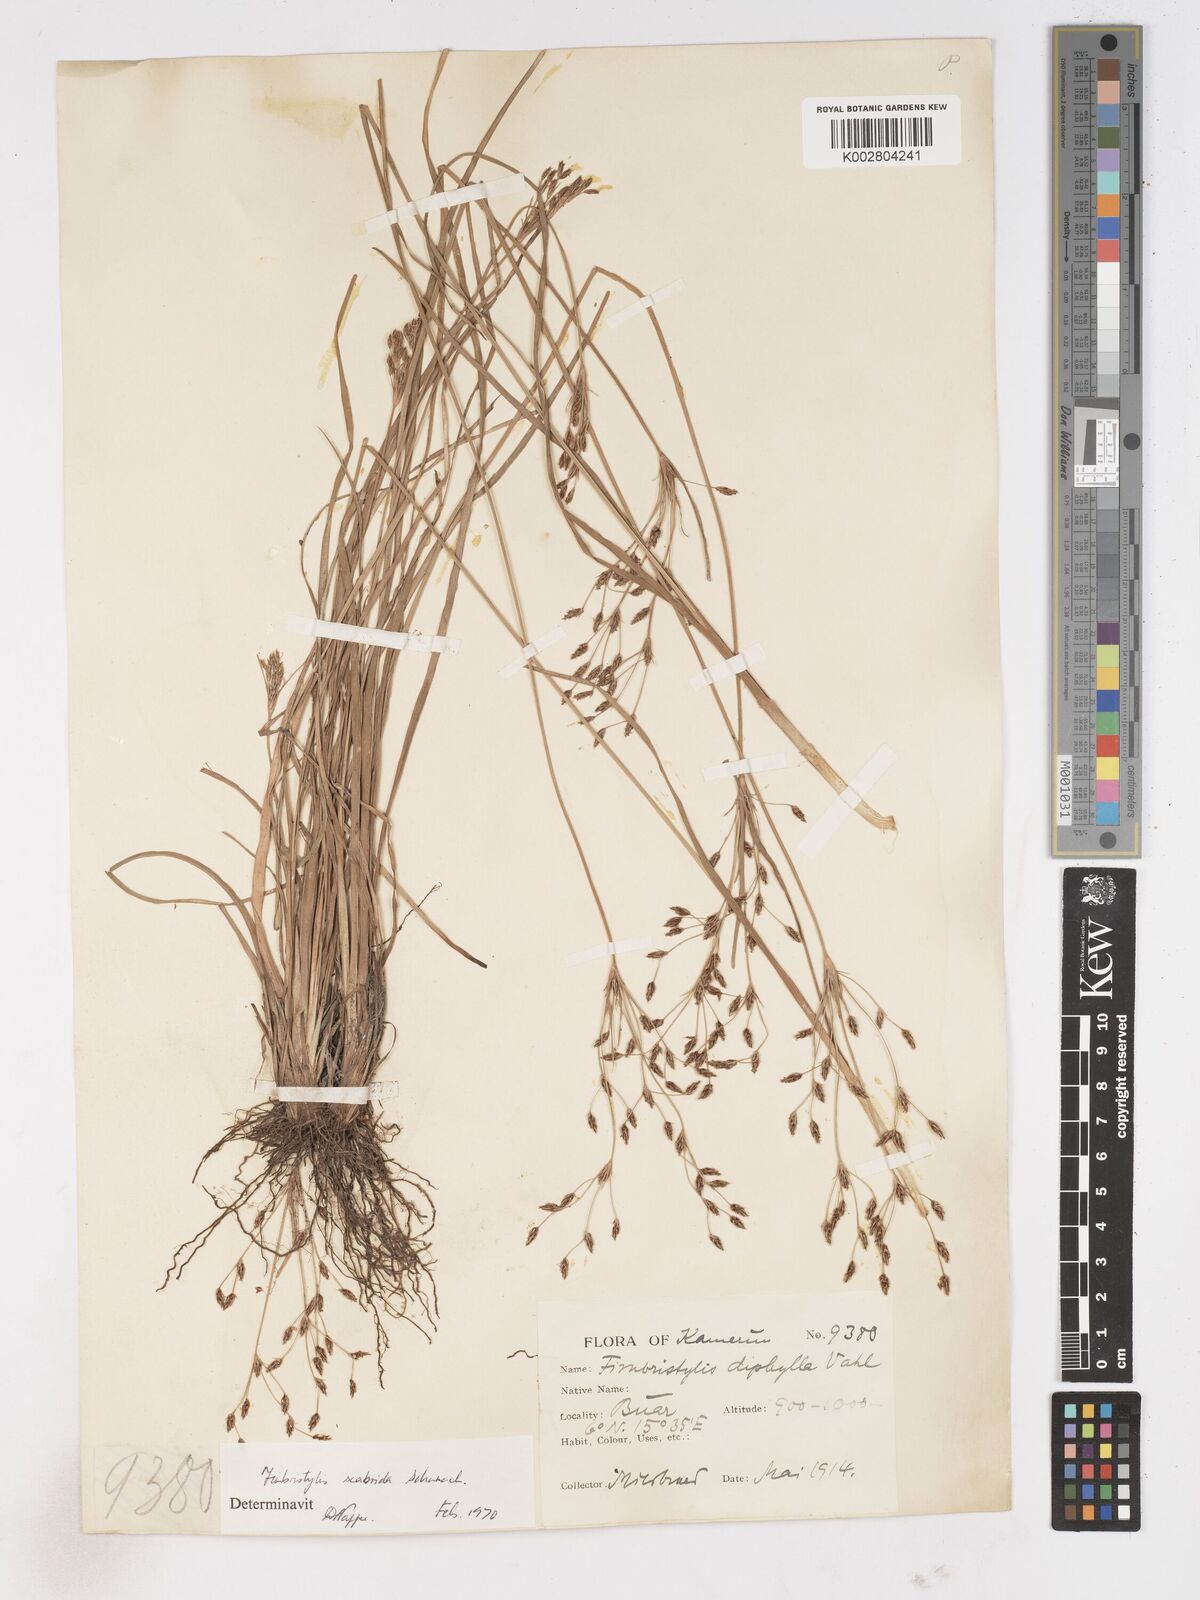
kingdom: Plantae
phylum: Tracheophyta
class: Liliopsida
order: Poales
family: Cyperaceae
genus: Fimbristylis
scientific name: Fimbristylis scabrida
